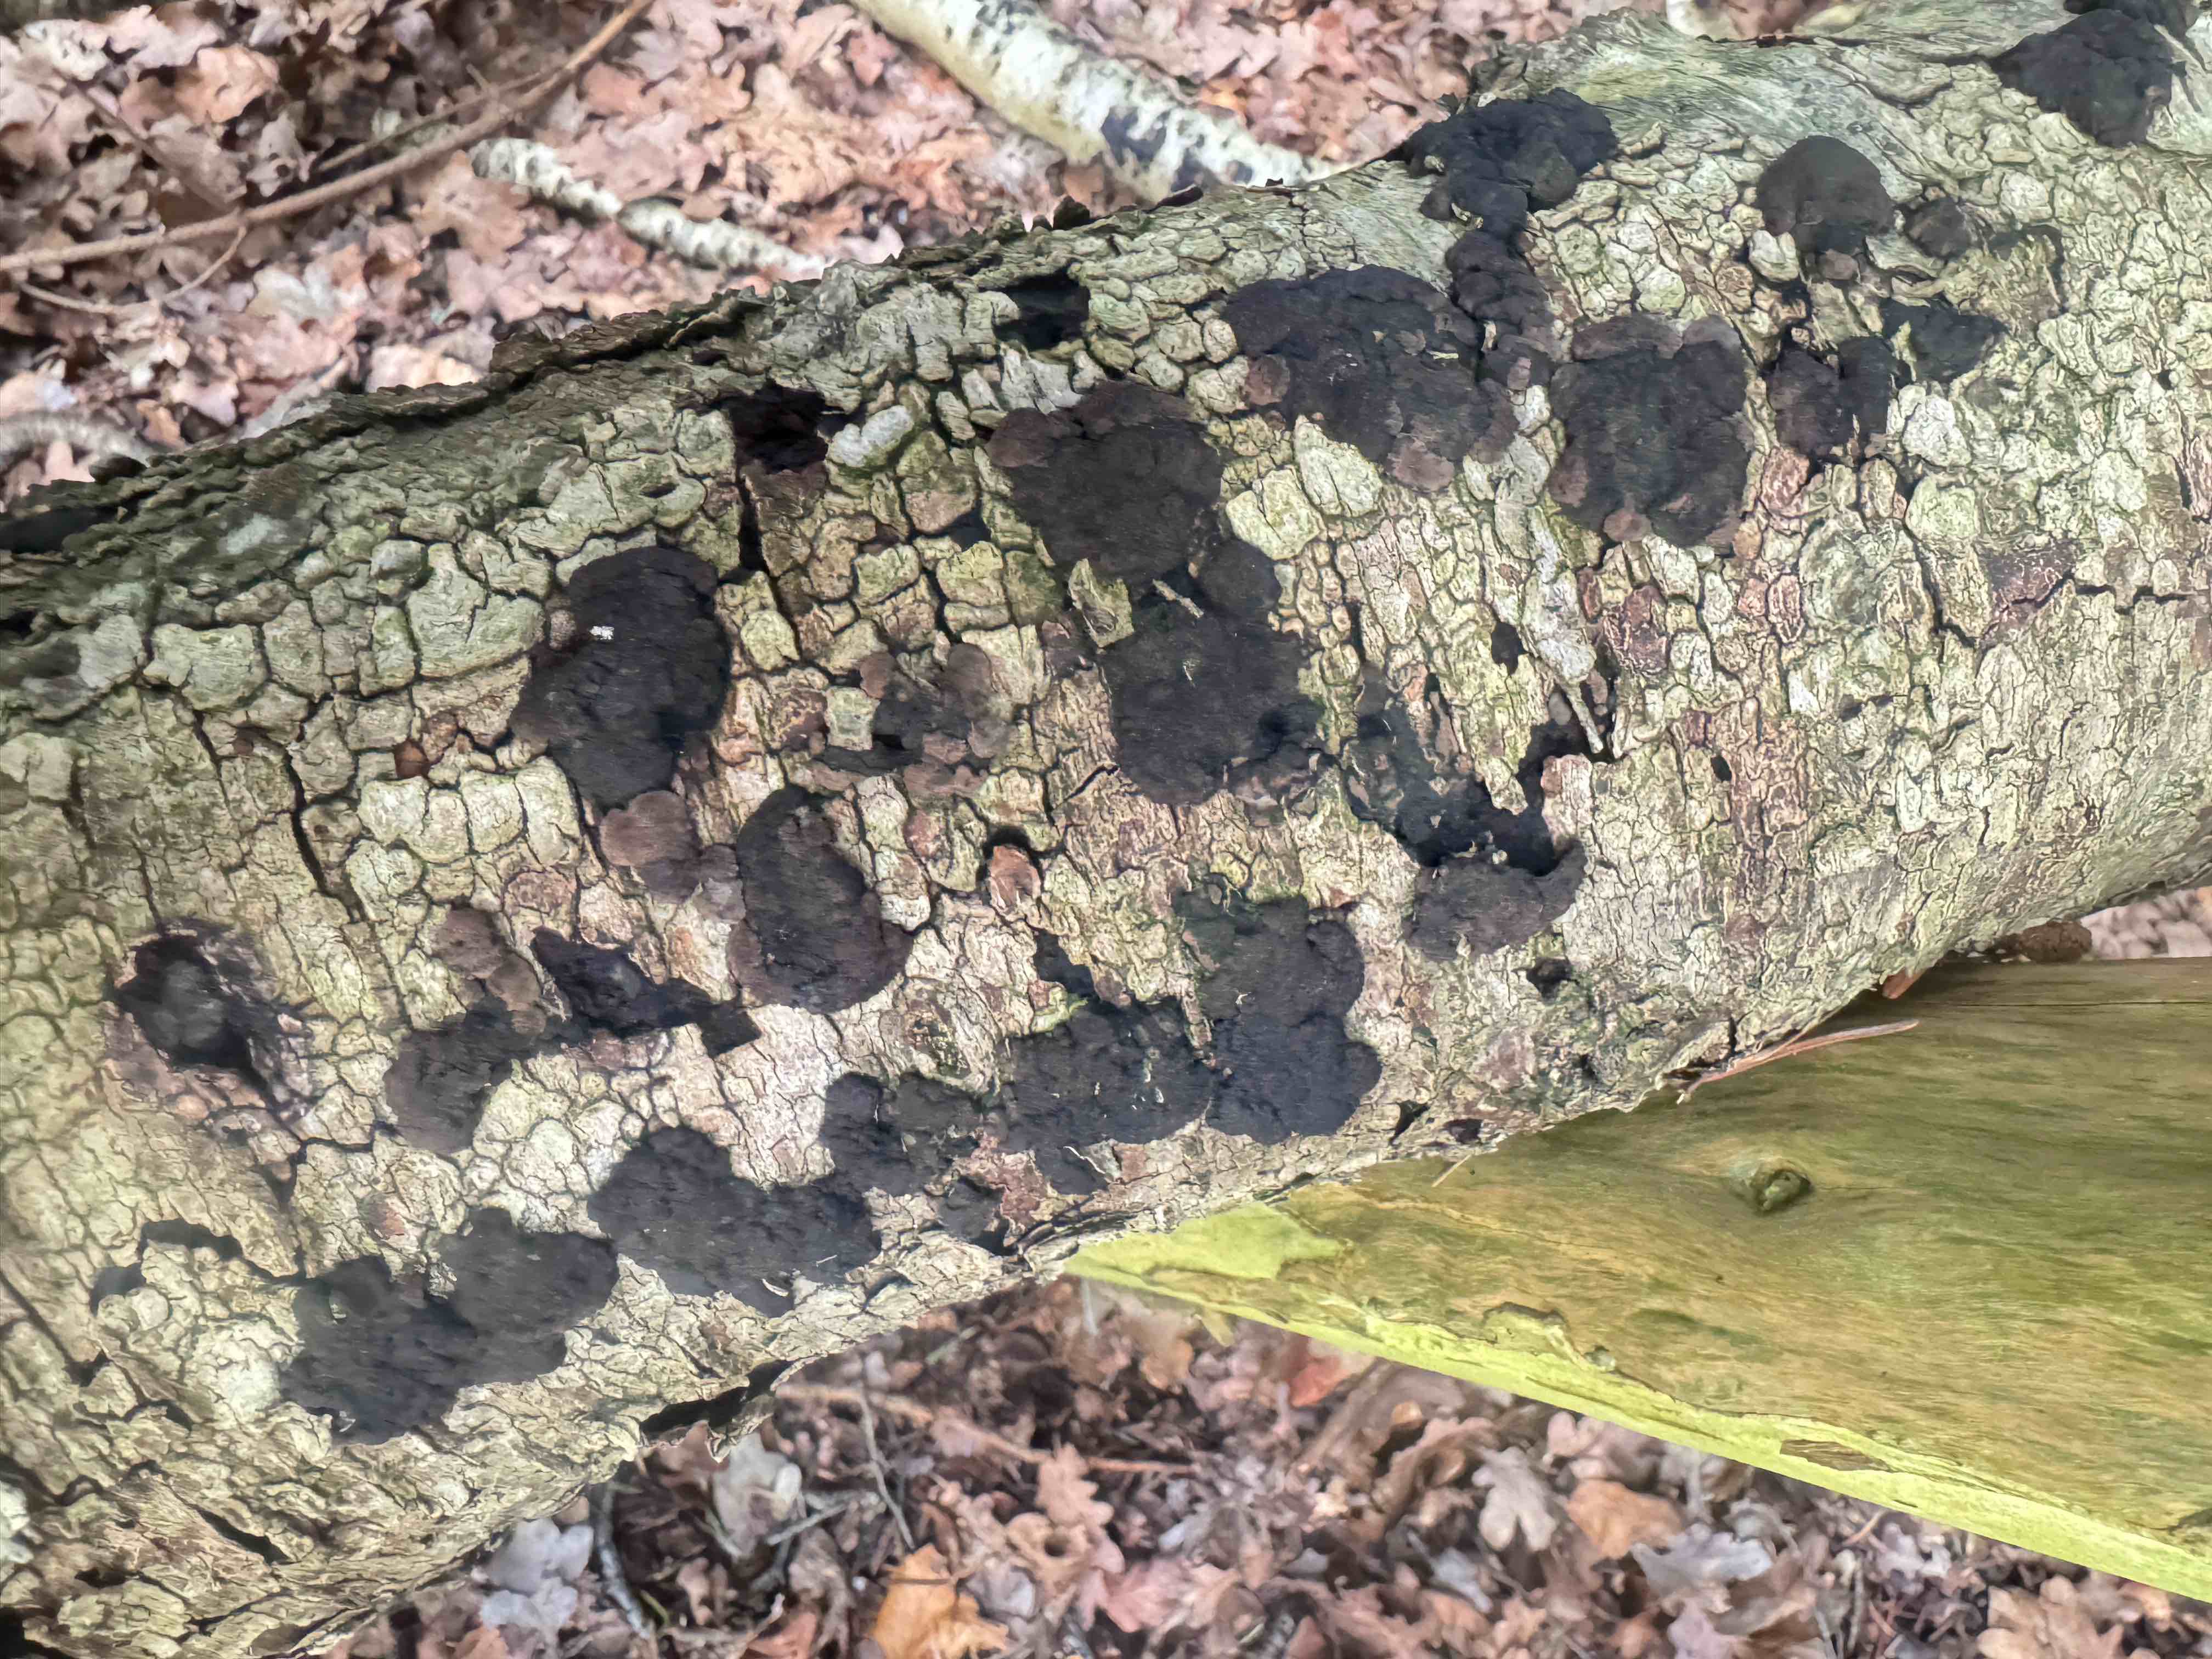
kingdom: Fungi
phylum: Ascomycota
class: Sordariomycetes
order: Xylariales
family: Hypoxylaceae
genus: Jackrogersella
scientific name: Jackrogersella multiformis
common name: foranderlig kulbær
